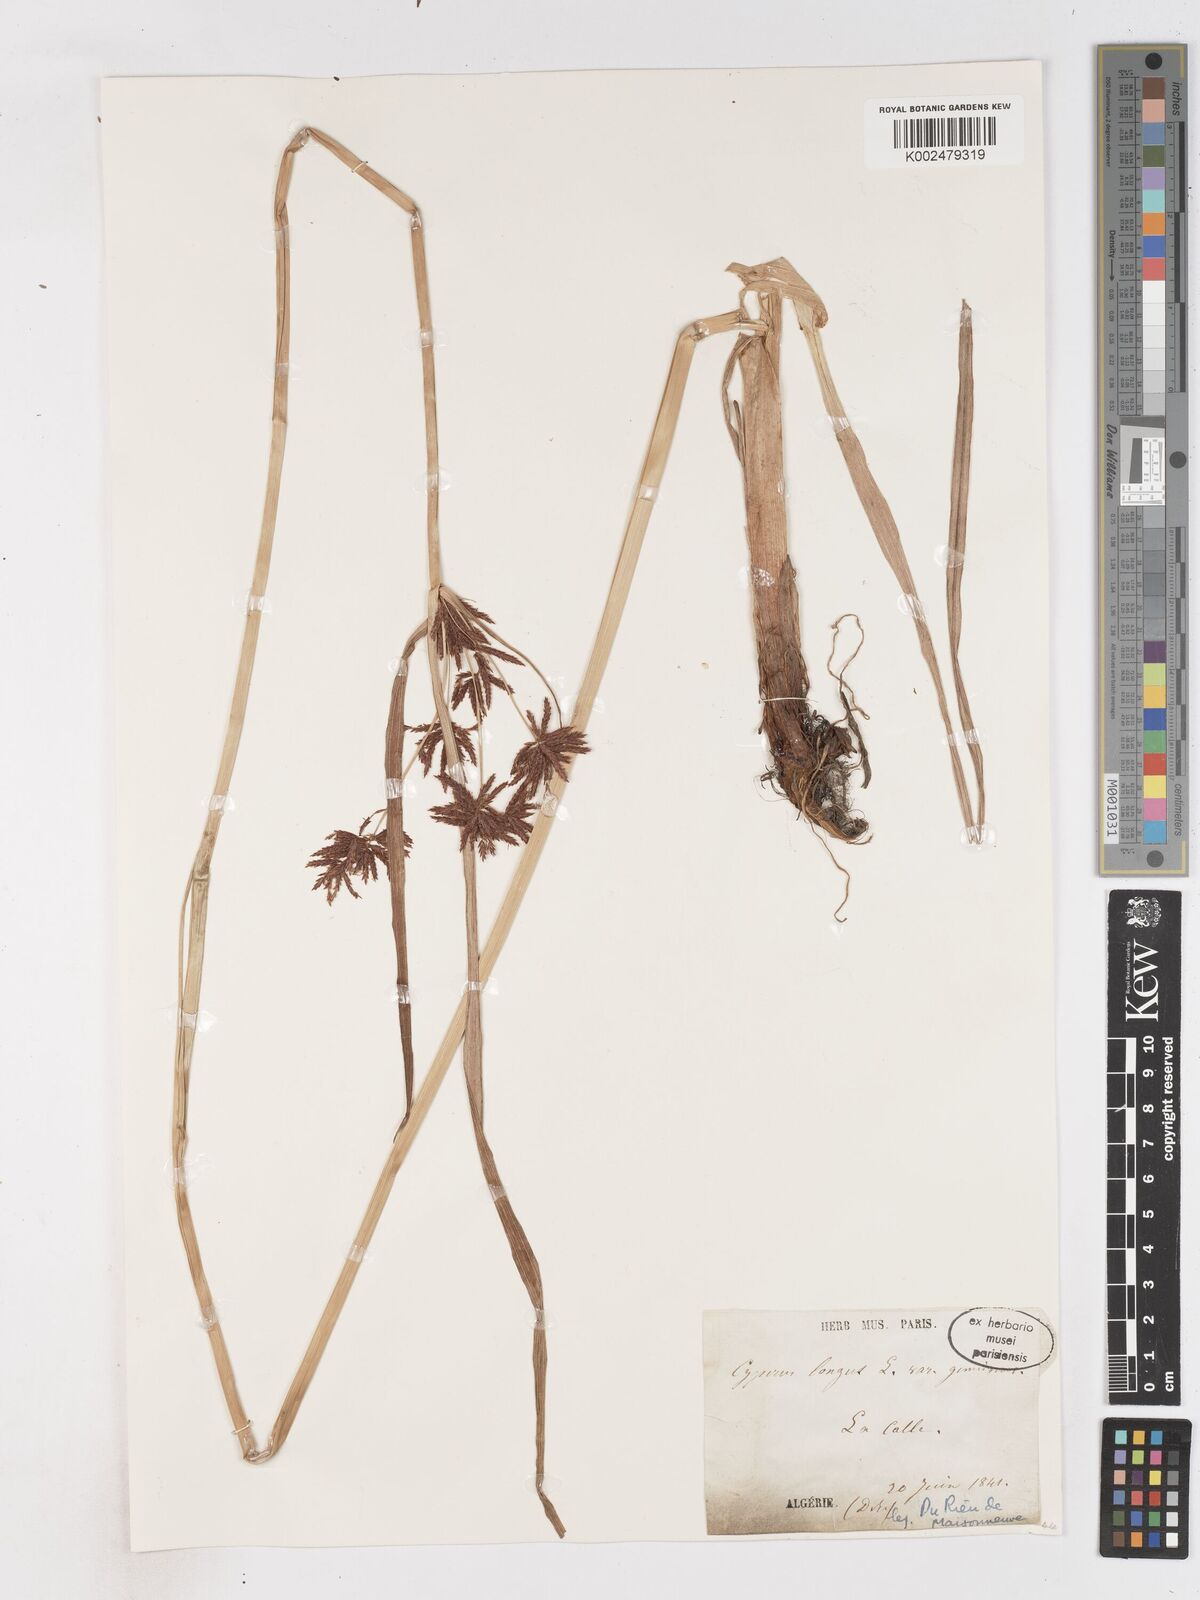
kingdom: Plantae
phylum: Tracheophyta
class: Liliopsida
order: Poales
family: Cyperaceae
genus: Cyperus
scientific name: Cyperus longus
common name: Galingale
